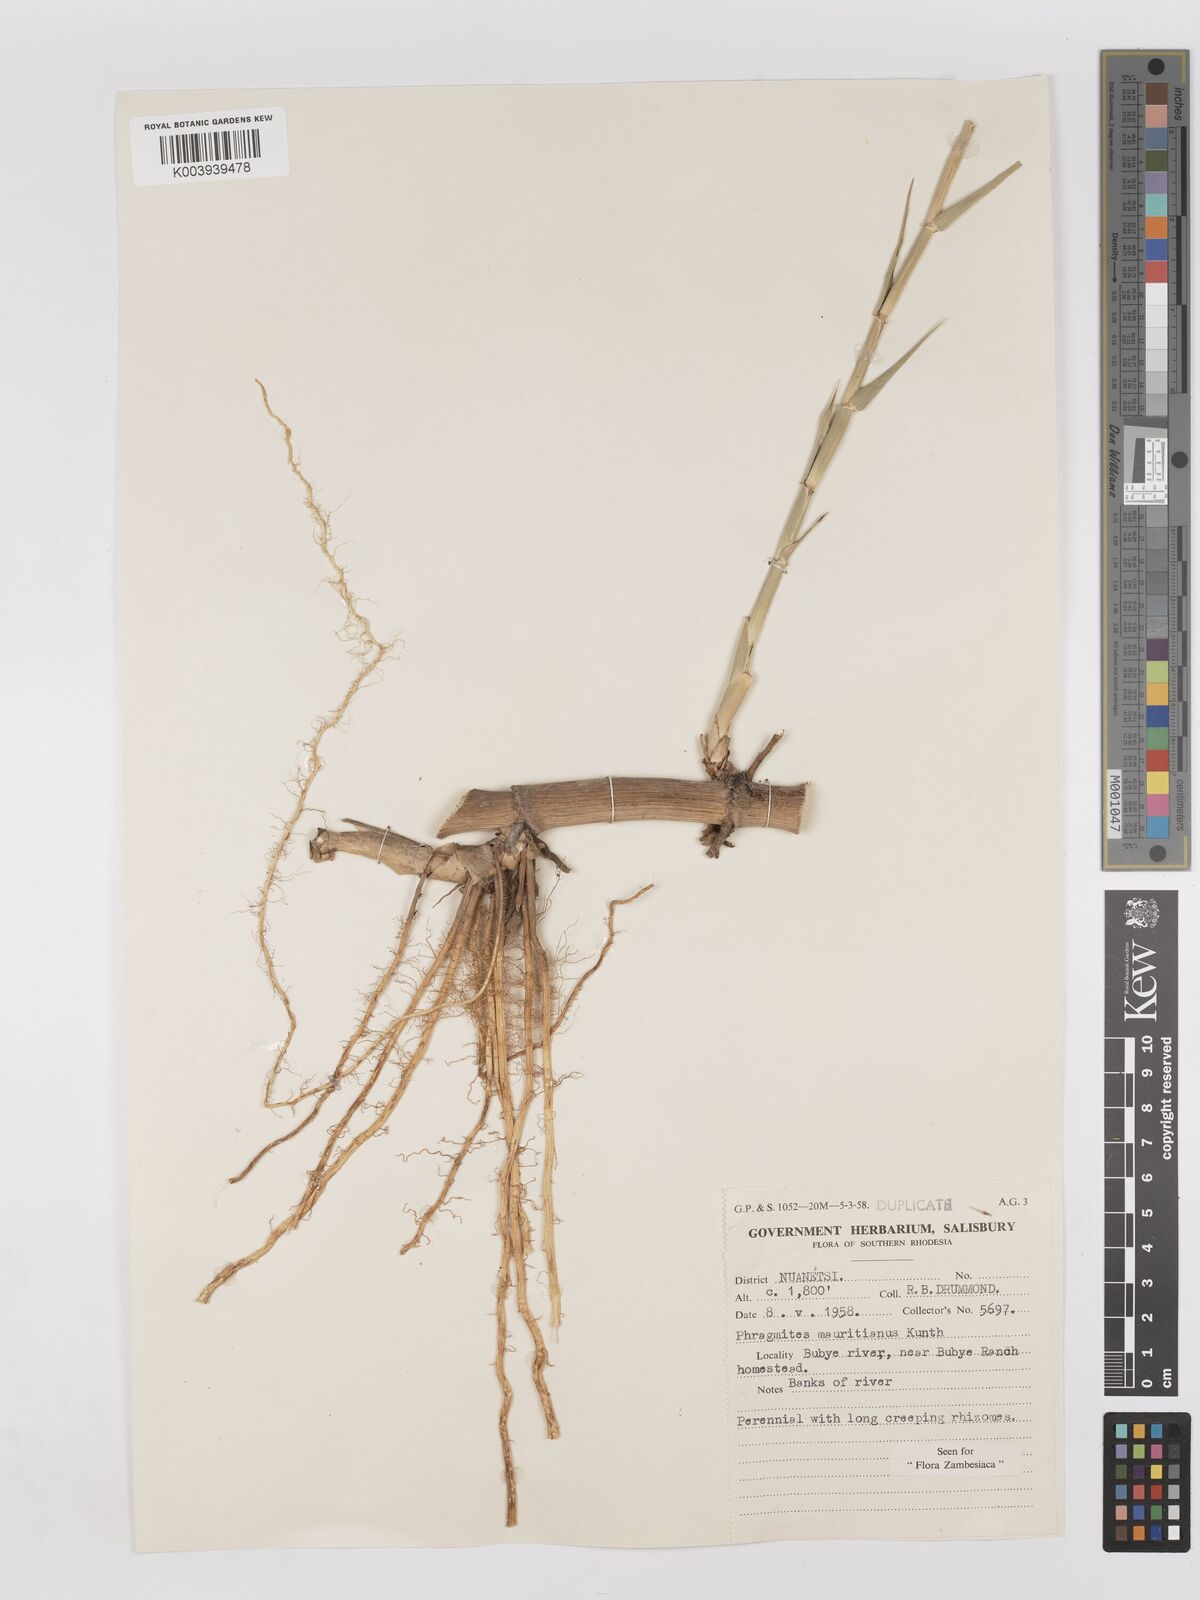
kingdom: Plantae
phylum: Tracheophyta
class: Liliopsida
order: Poales
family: Poaceae
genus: Phragmites
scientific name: Phragmites mauritianus
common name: Reed grass
